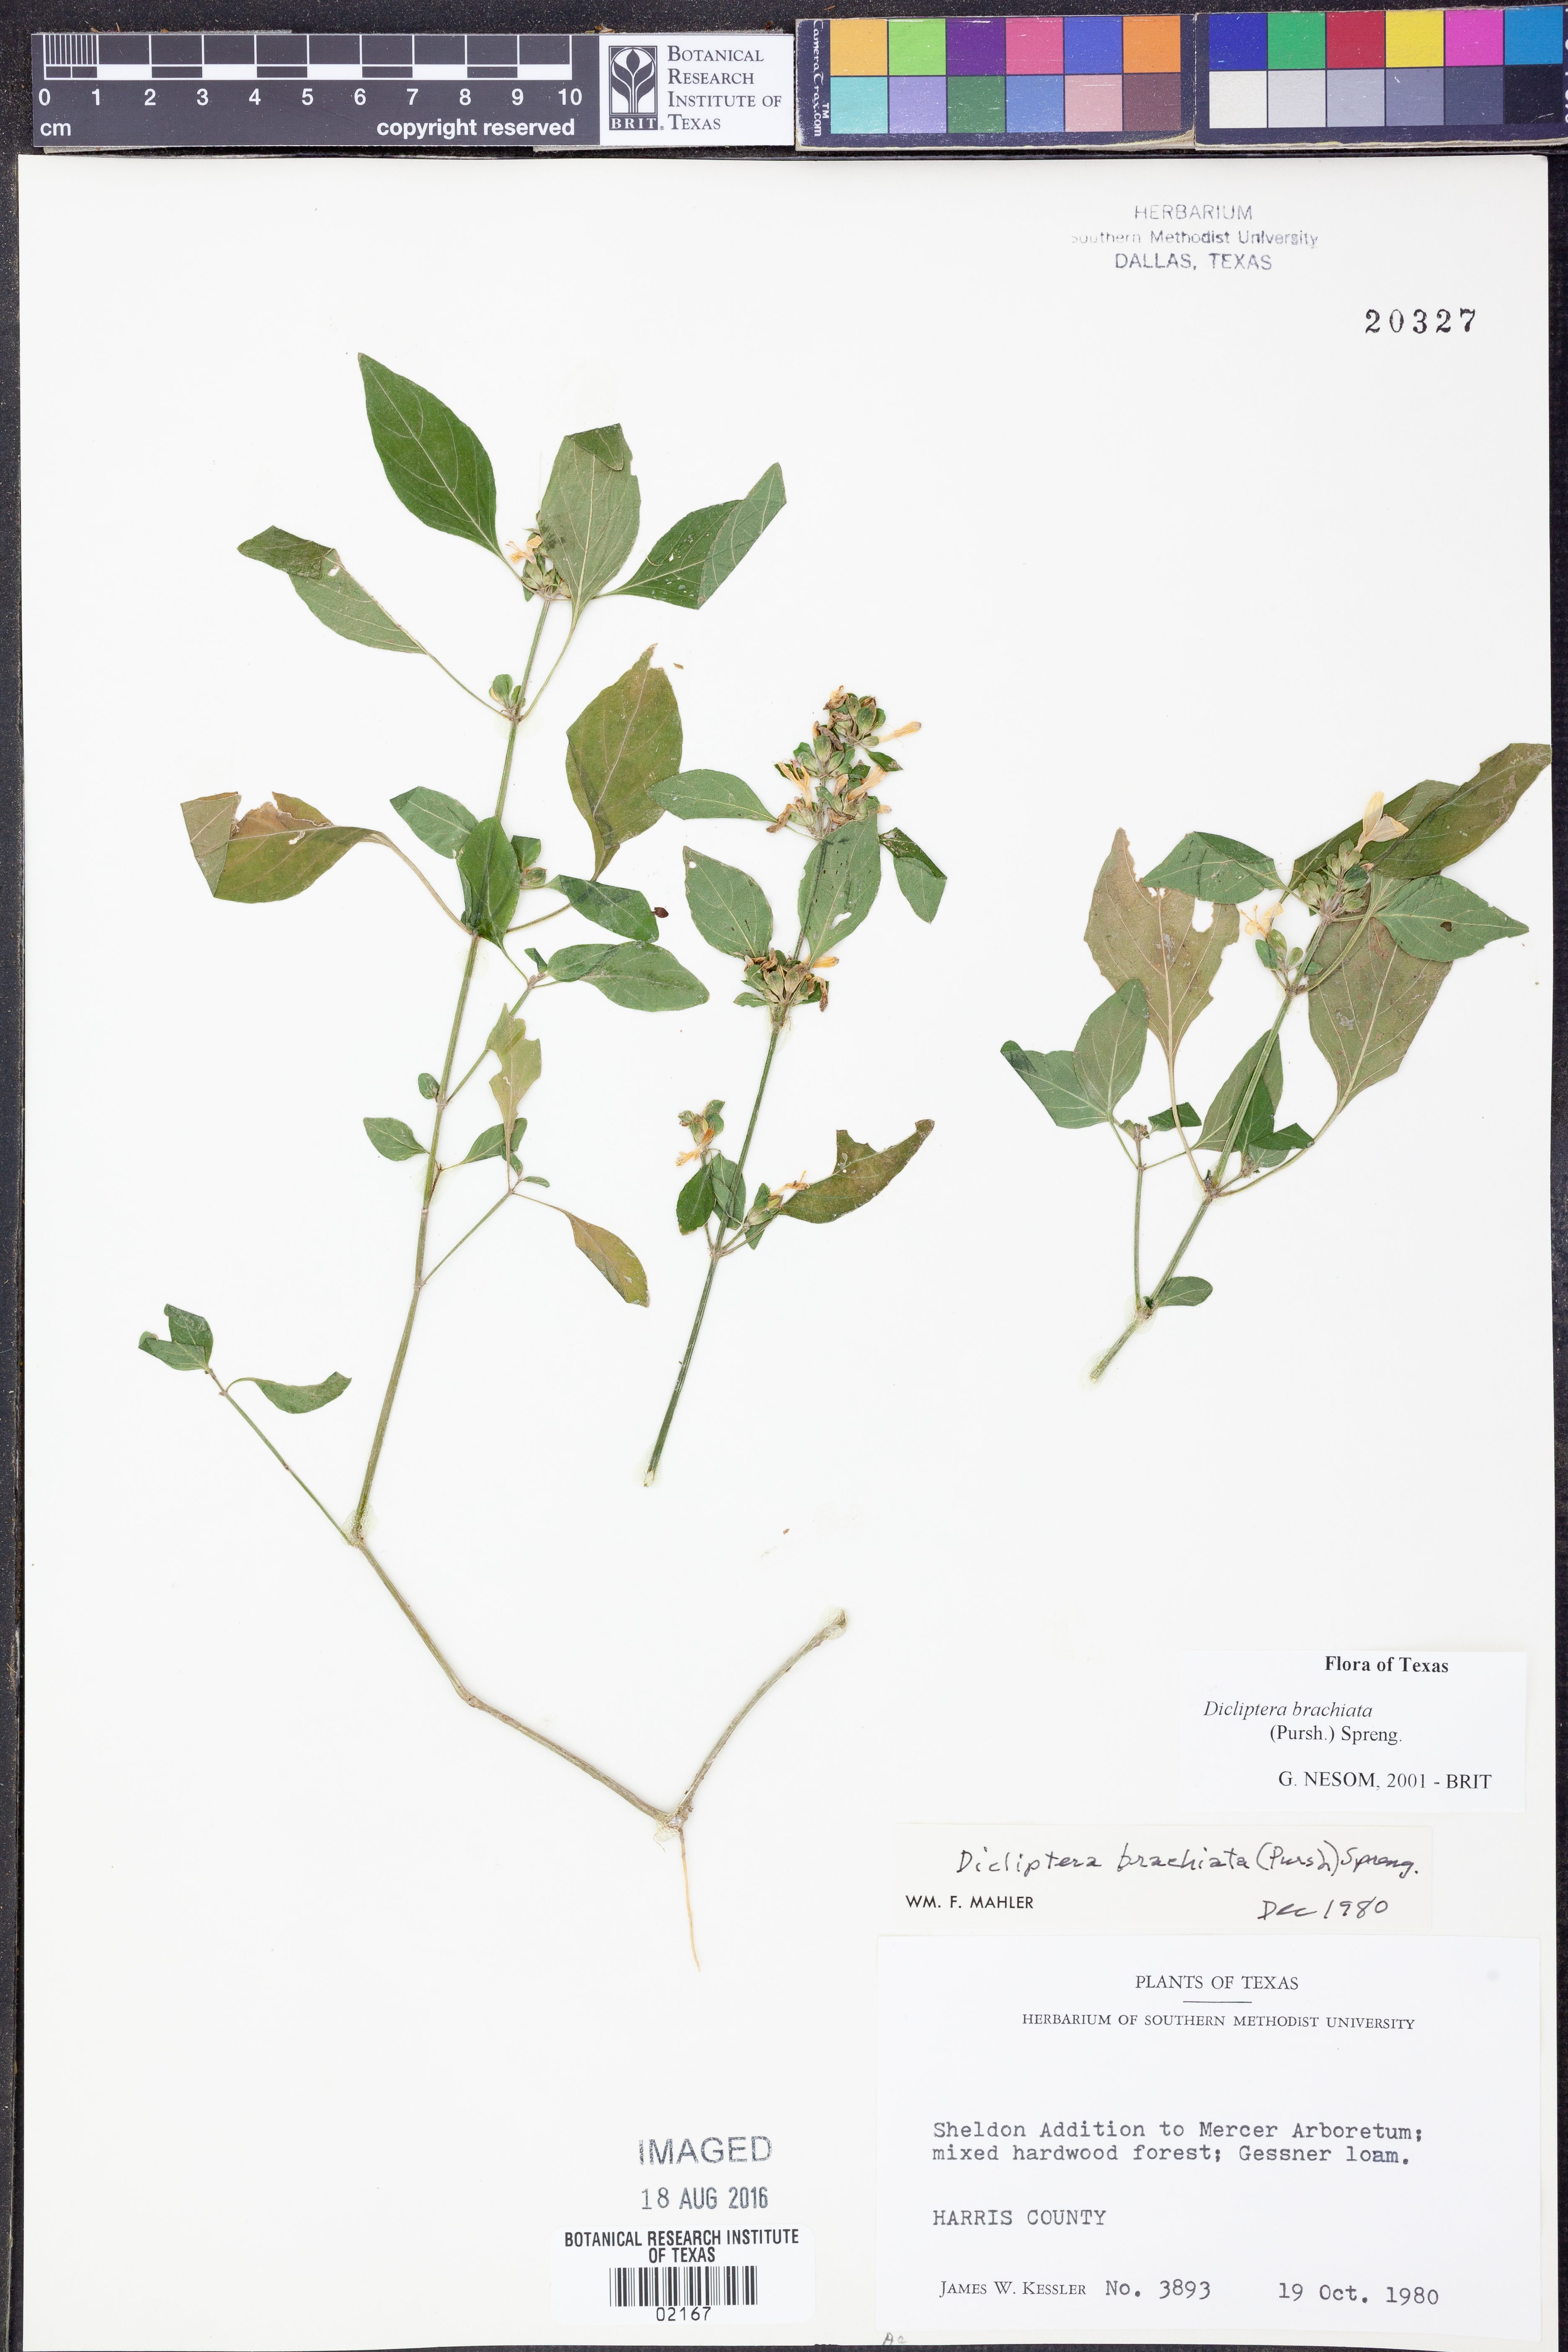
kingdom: Plantae
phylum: Tracheophyta
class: Magnoliopsida
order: Lamiales
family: Acanthaceae
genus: Dicliptera
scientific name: Dicliptera brachiata
